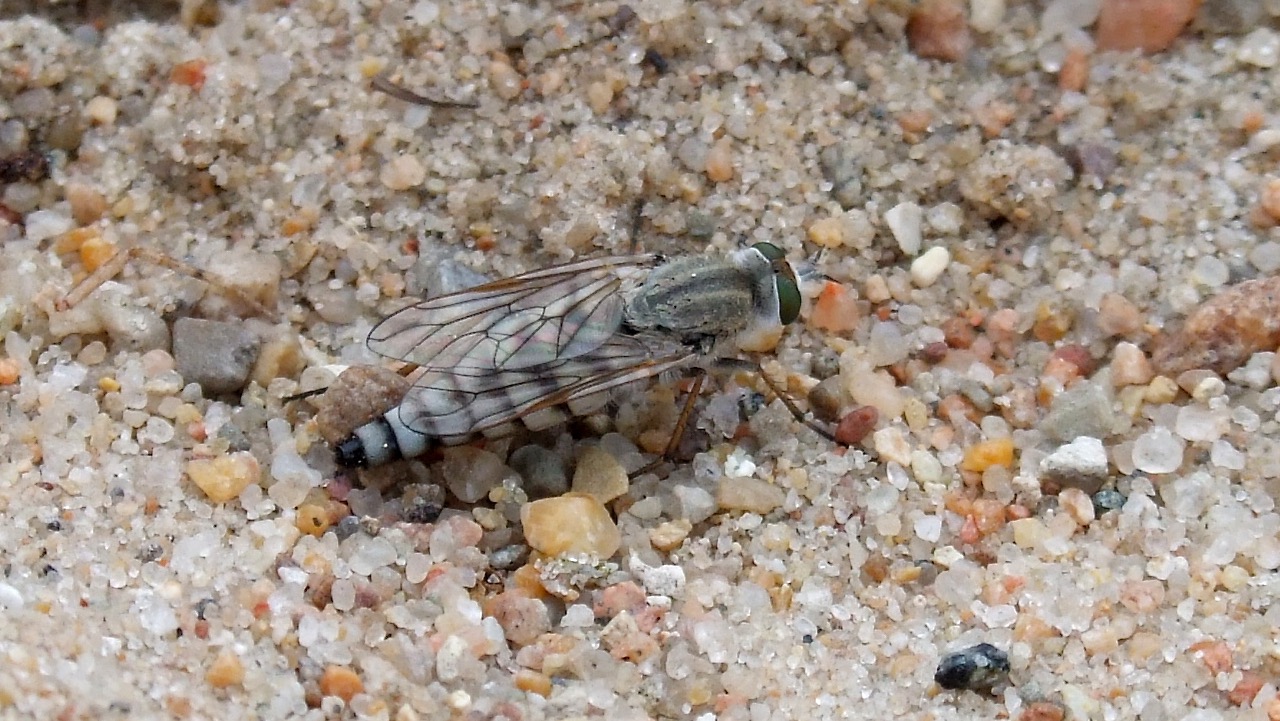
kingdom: Animalia
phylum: Arthropoda
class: Insecta
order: Diptera
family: Therevidae
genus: Acrosathe
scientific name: Acrosathe annulata
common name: Sølvhåret stiletflue
